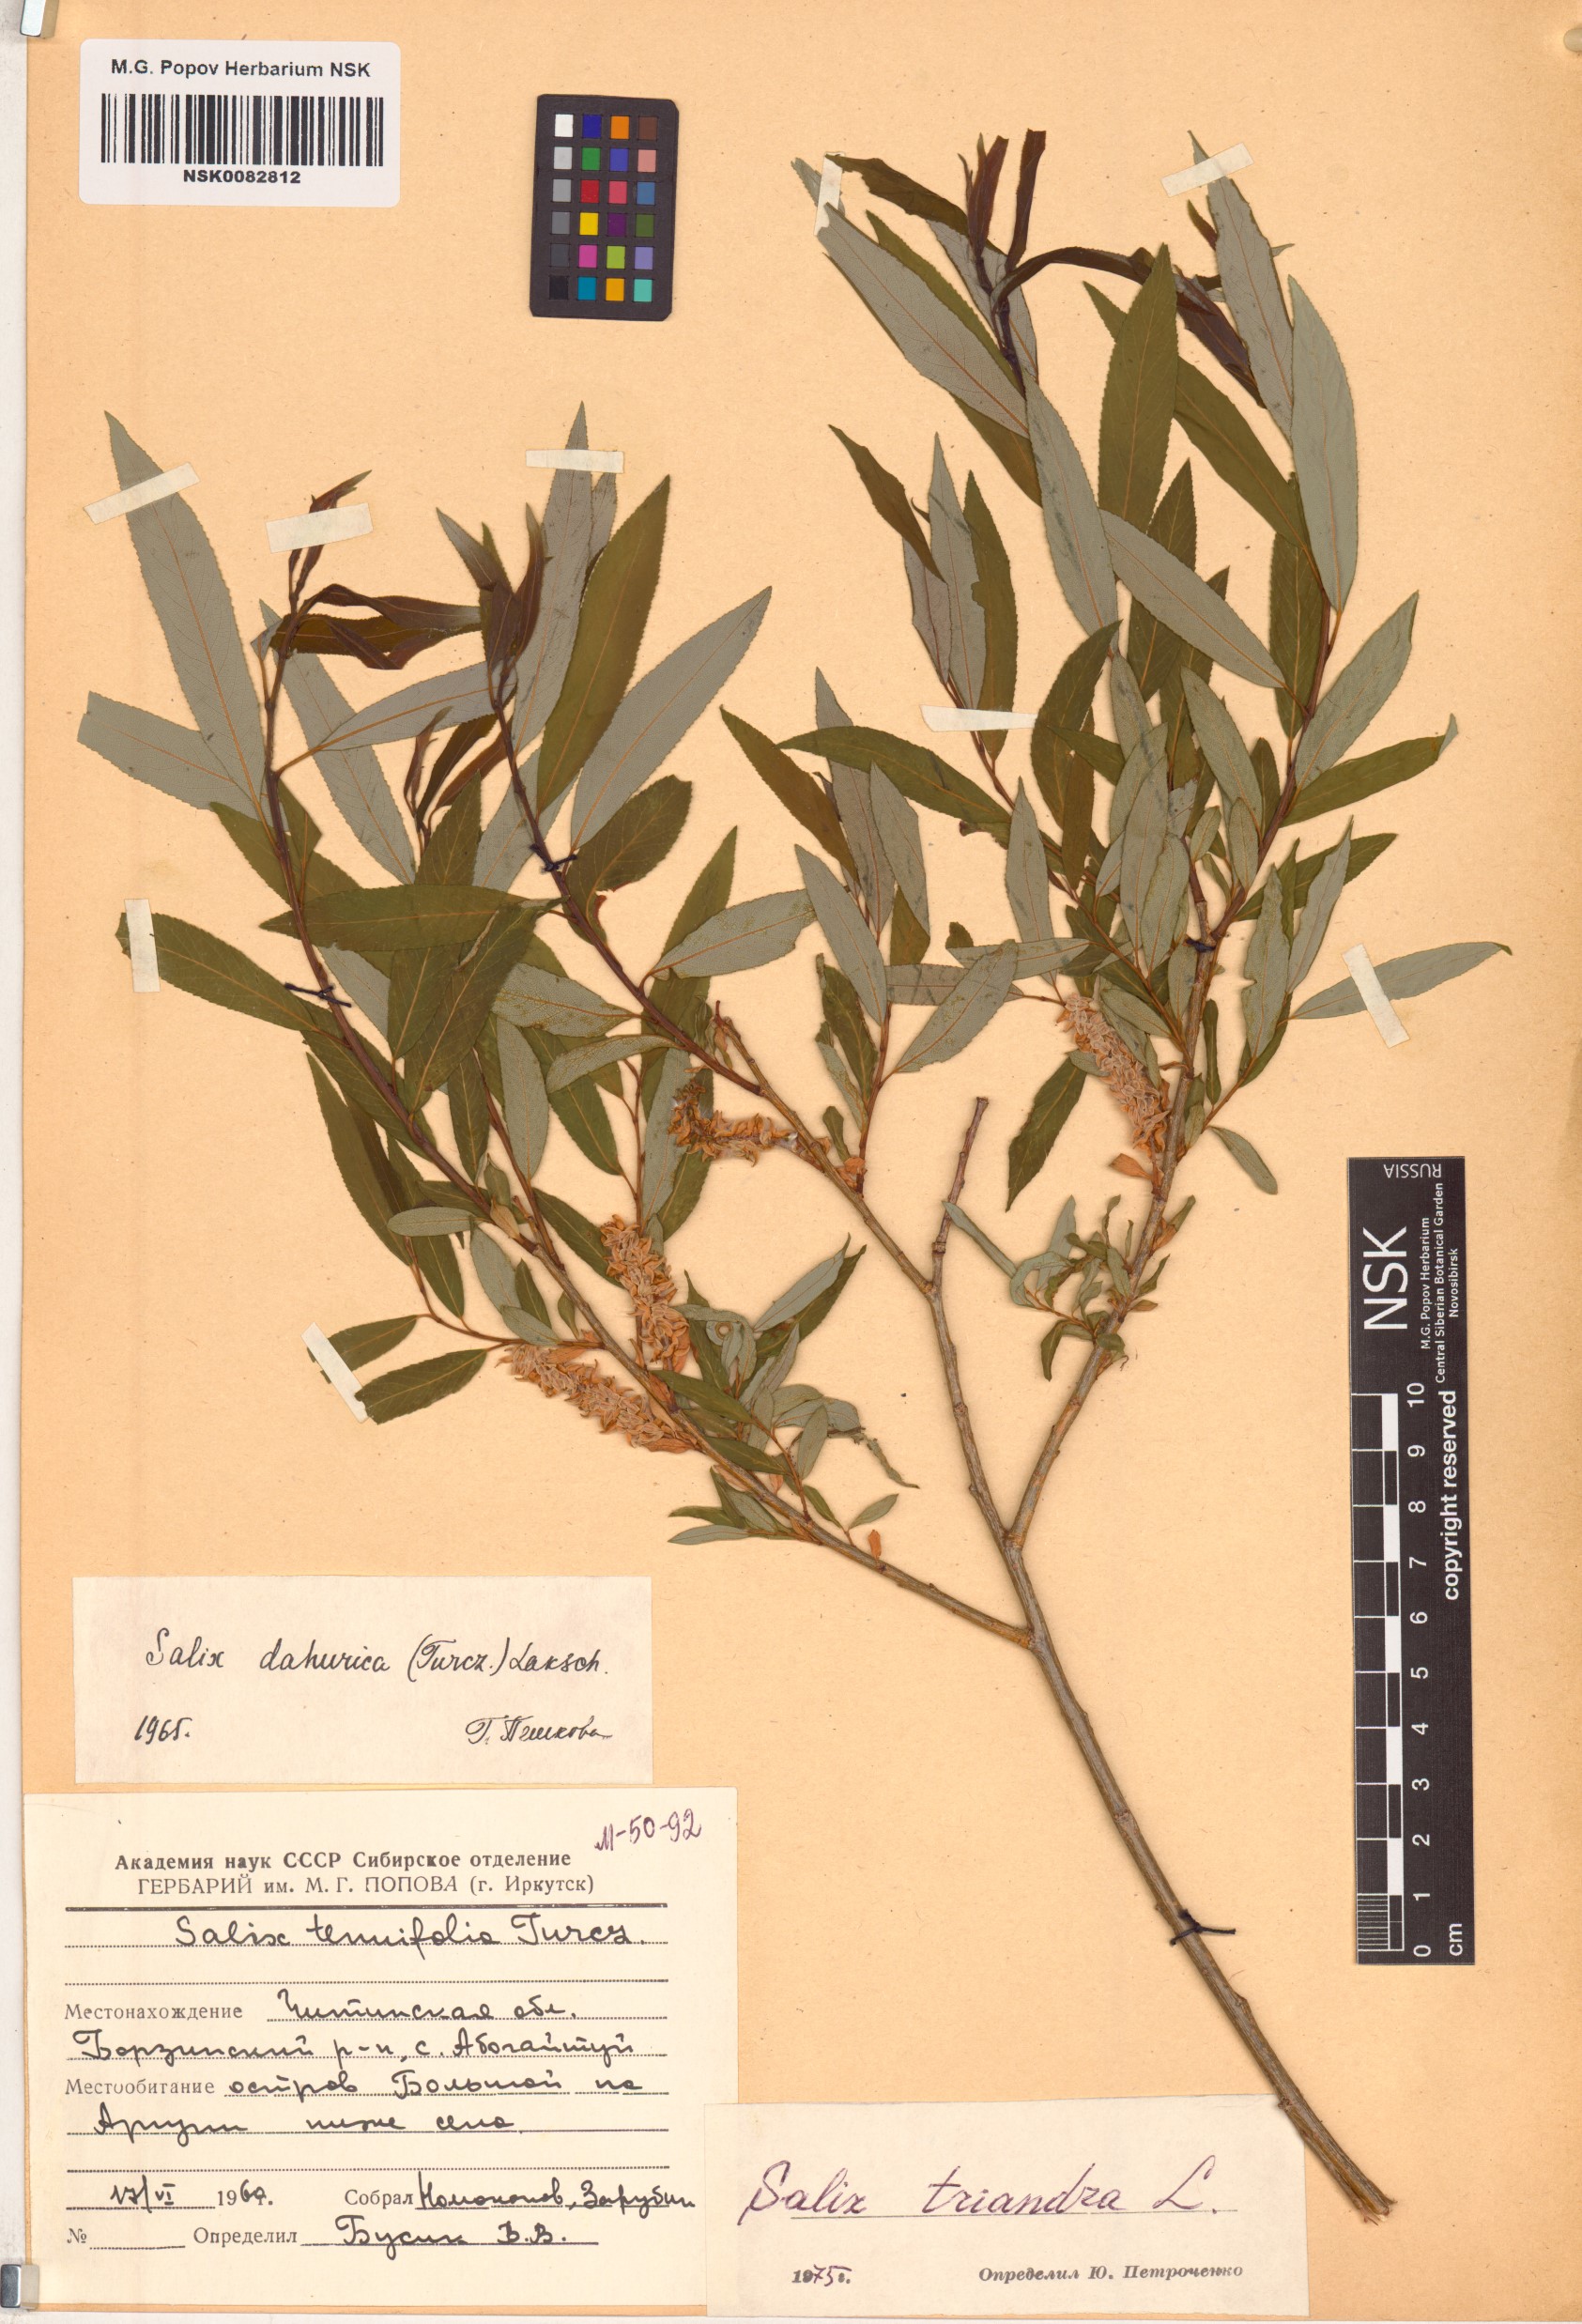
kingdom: Plantae
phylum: Tracheophyta
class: Magnoliopsida
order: Malpighiales
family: Salicaceae
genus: Salix
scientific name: Salix triandra
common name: Almond willow
